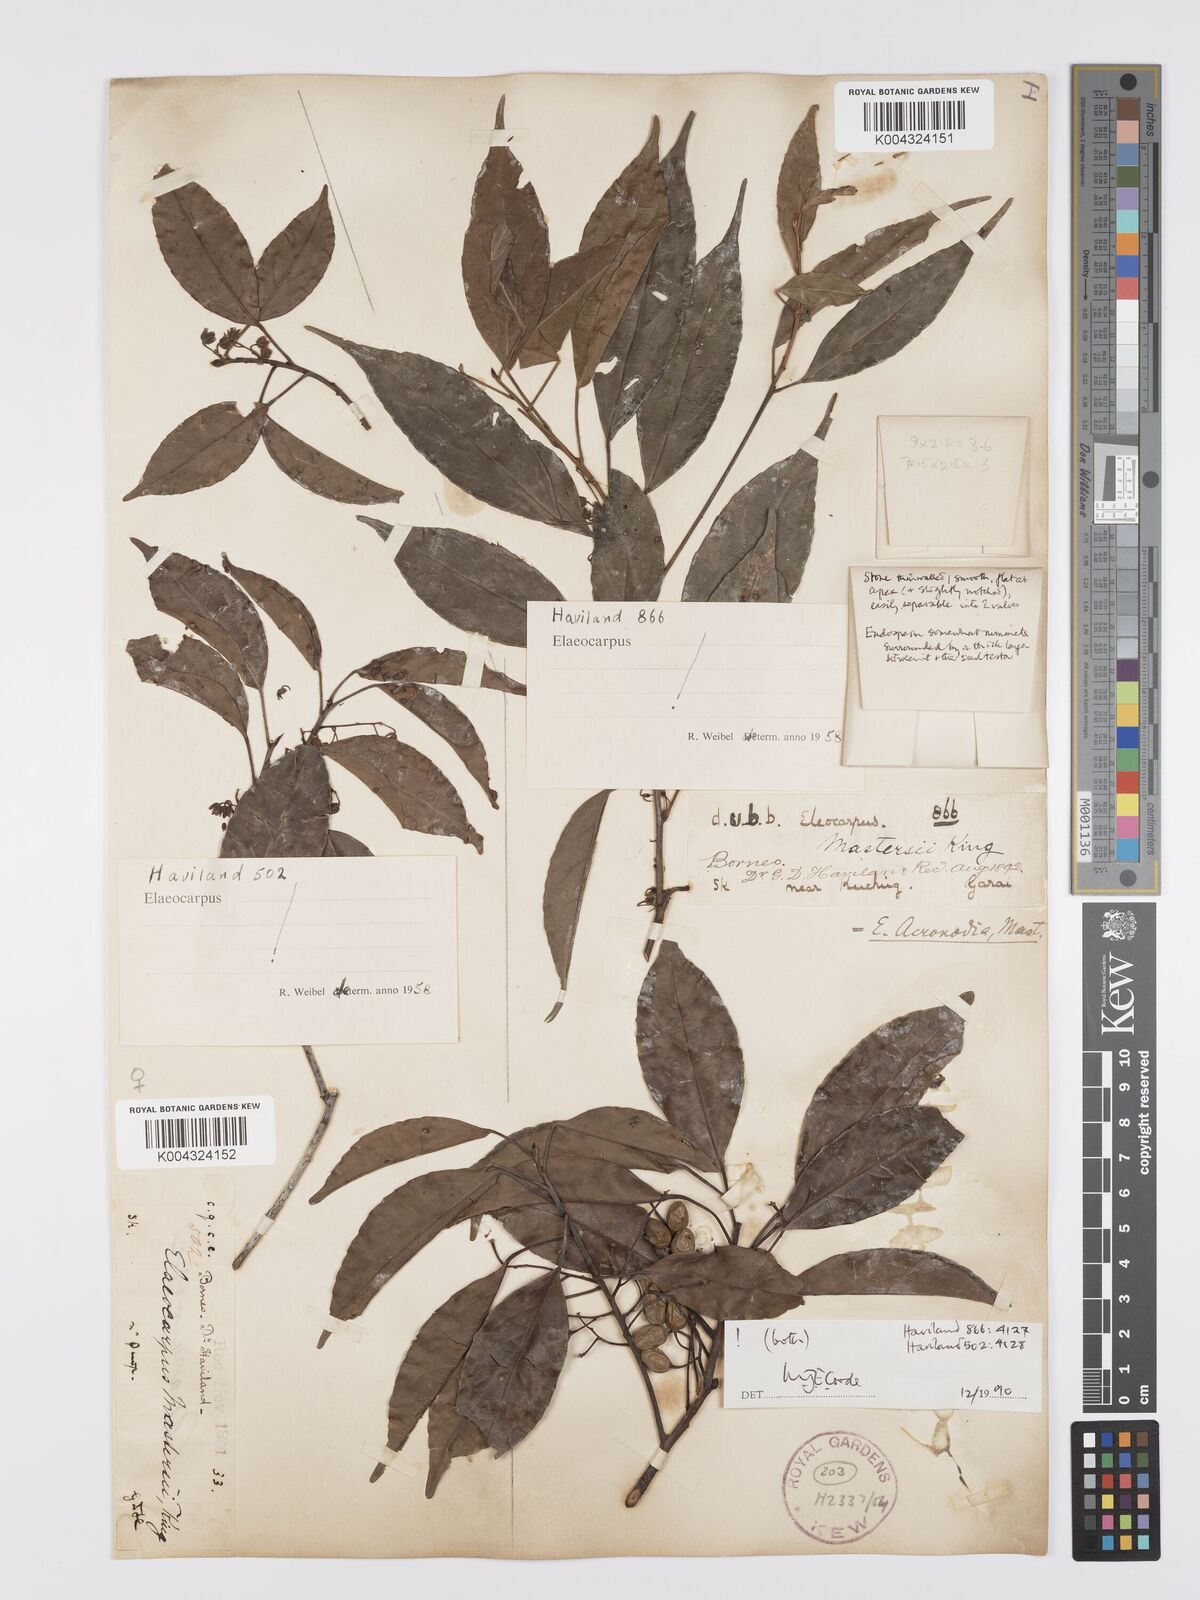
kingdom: Plantae
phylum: Tracheophyta
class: Magnoliopsida
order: Oxalidales
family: Elaeocarpaceae
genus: Elaeocarpus
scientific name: Elaeocarpus mastersii
